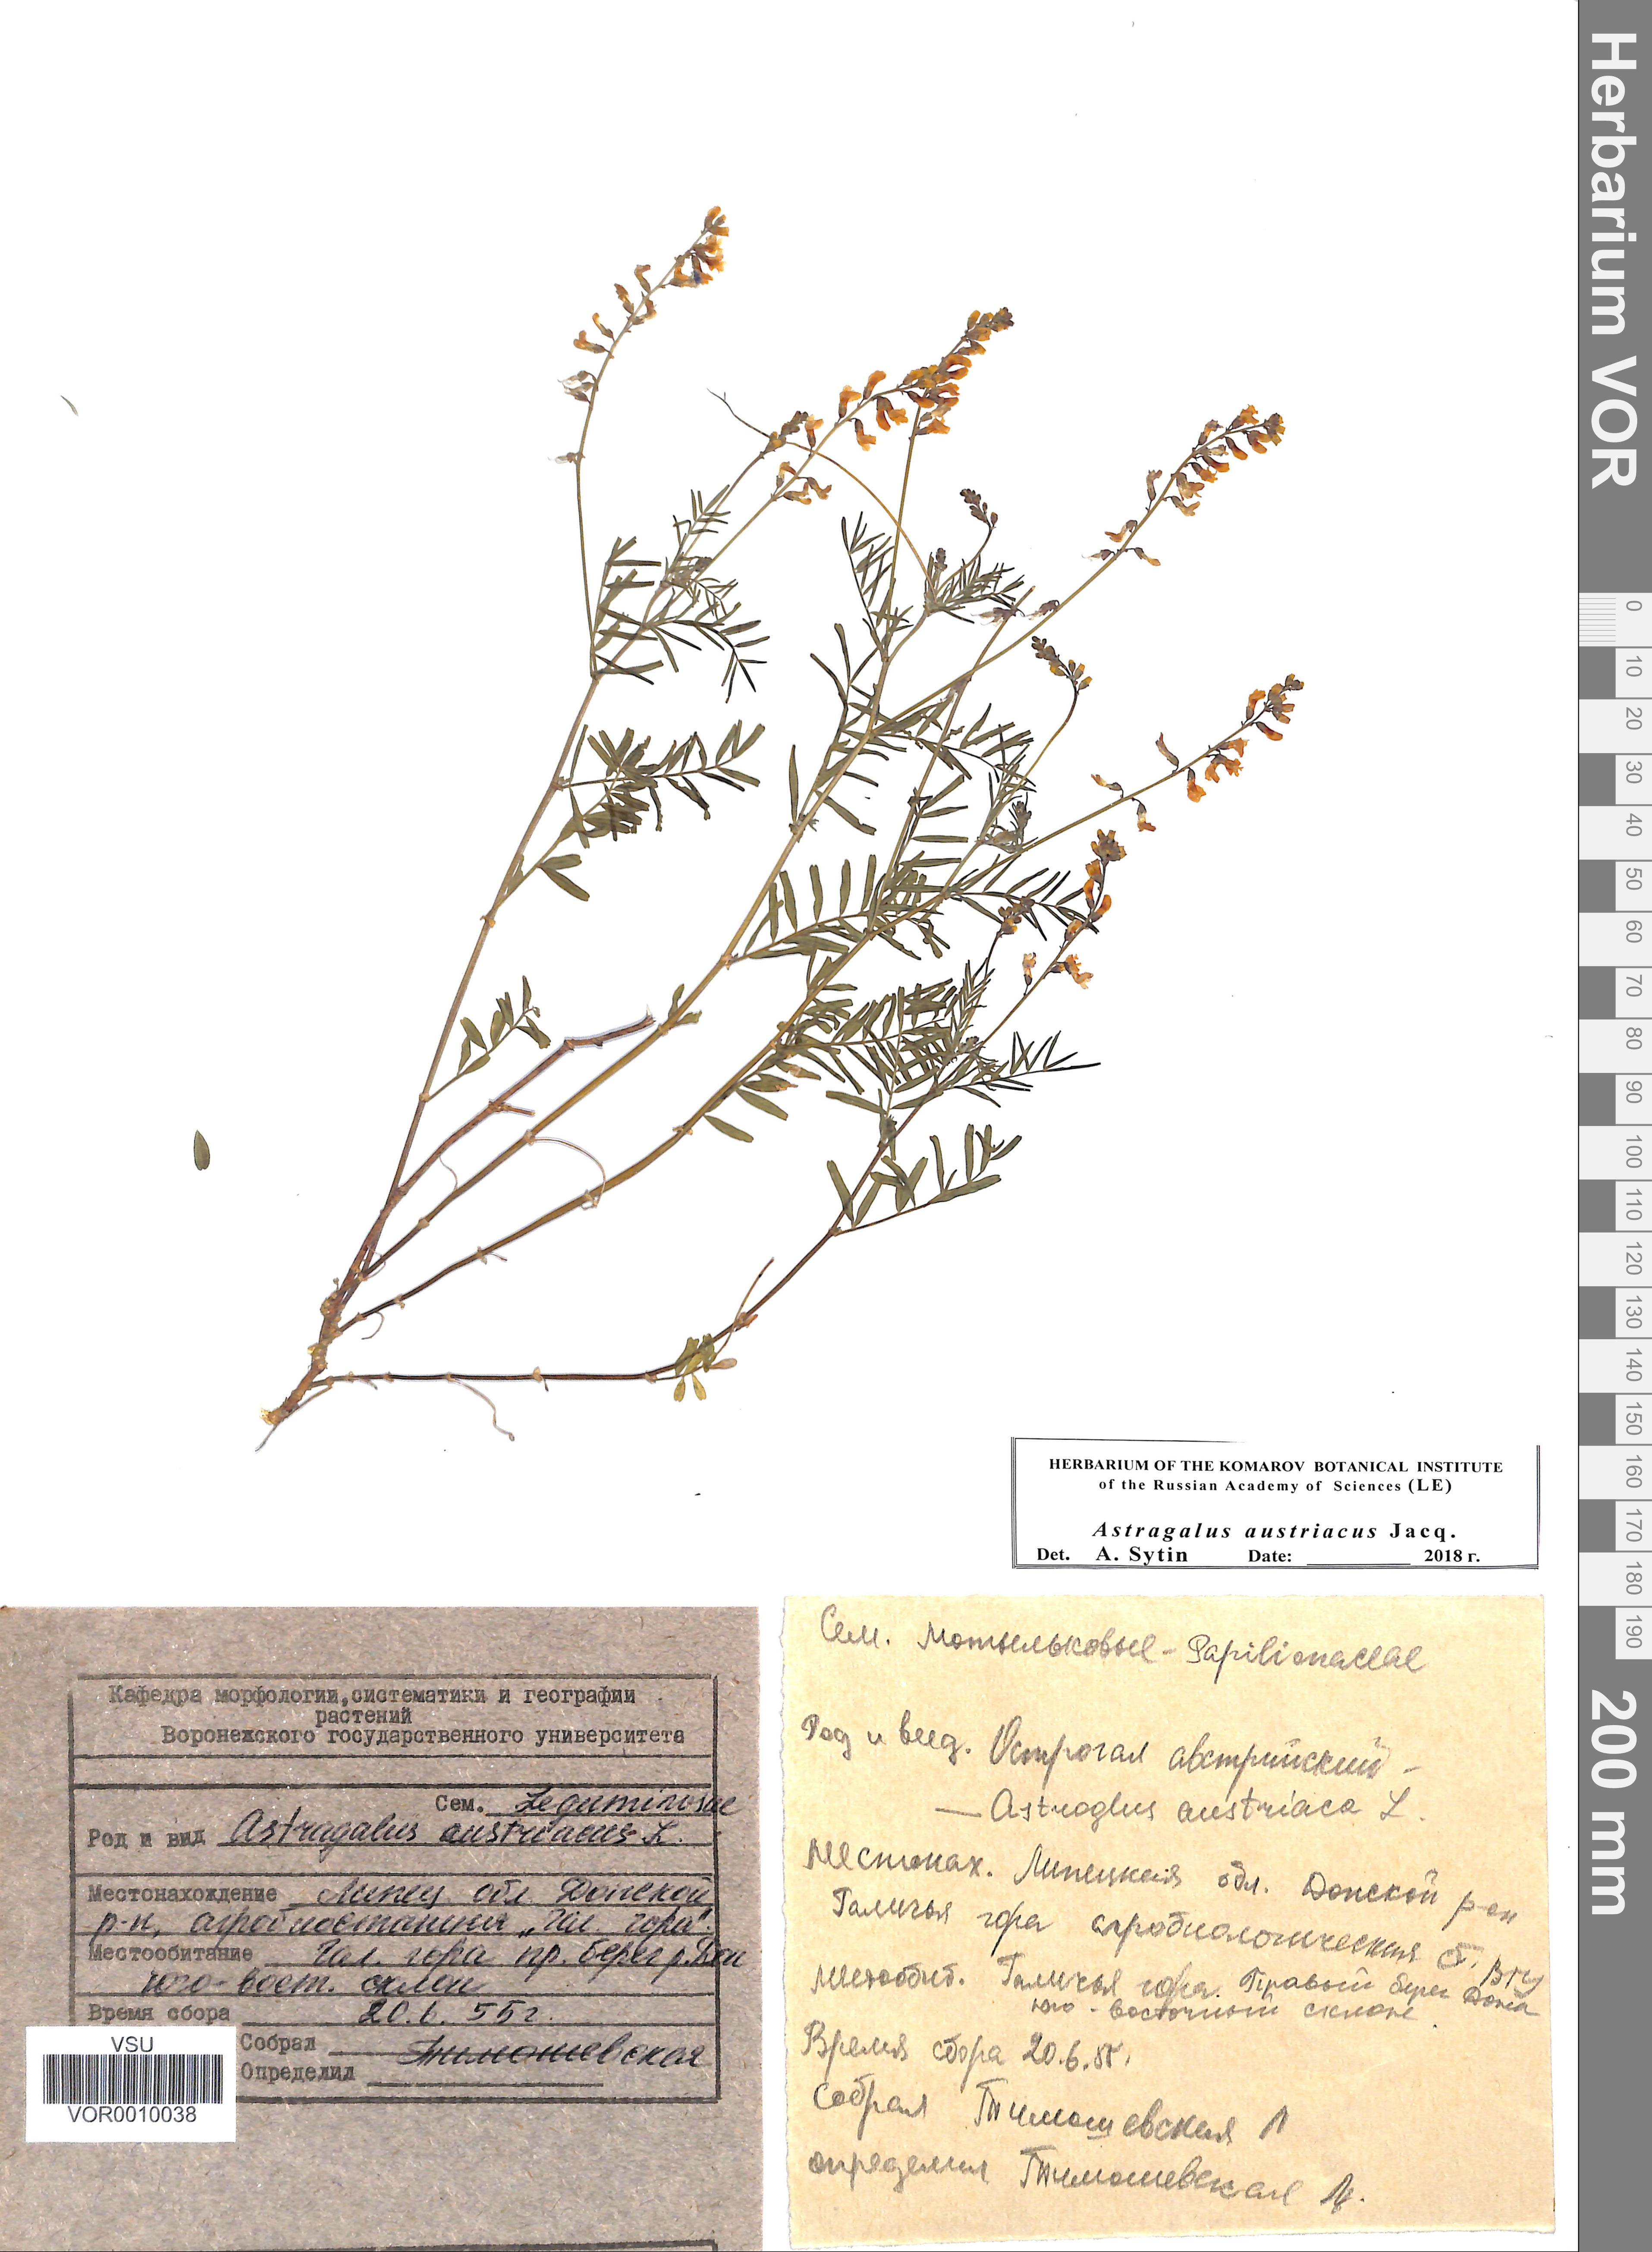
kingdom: Plantae
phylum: Tracheophyta
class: Magnoliopsida
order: Fabales
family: Fabaceae
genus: Astragalus
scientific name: Astragalus austriacus
